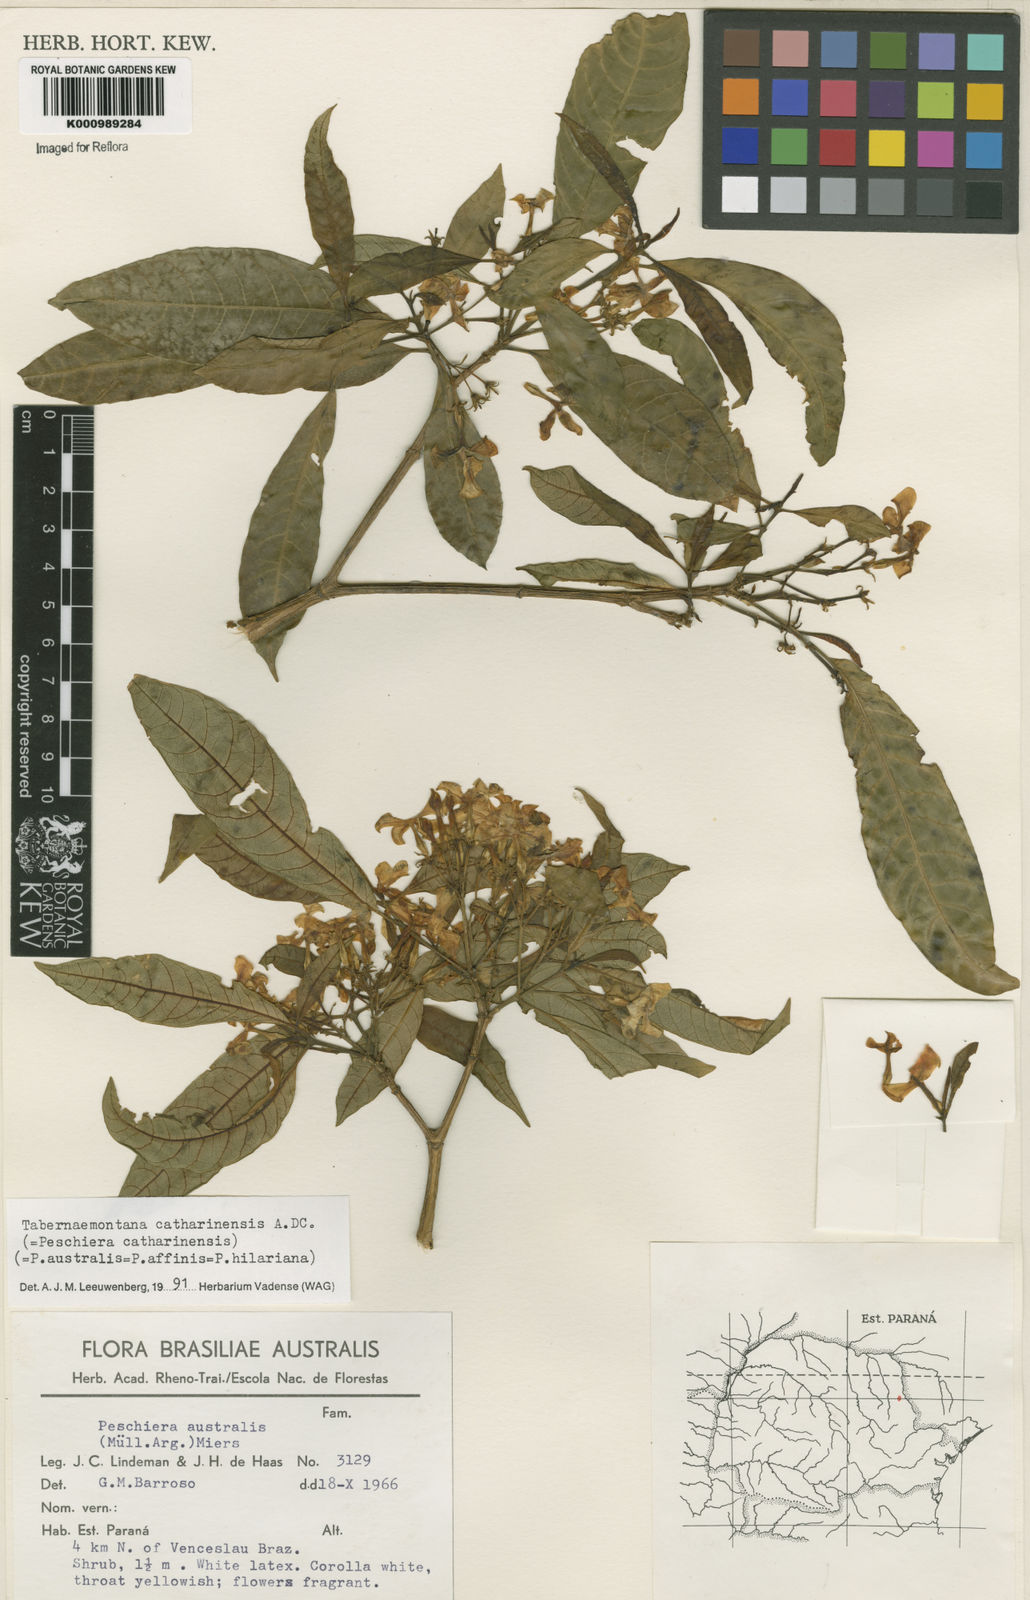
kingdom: Plantae
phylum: Tracheophyta
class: Magnoliopsida
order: Gentianales
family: Apocynaceae
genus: Tabernaemontana
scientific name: Tabernaemontana catharinensis
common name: Pinwheel-flower
